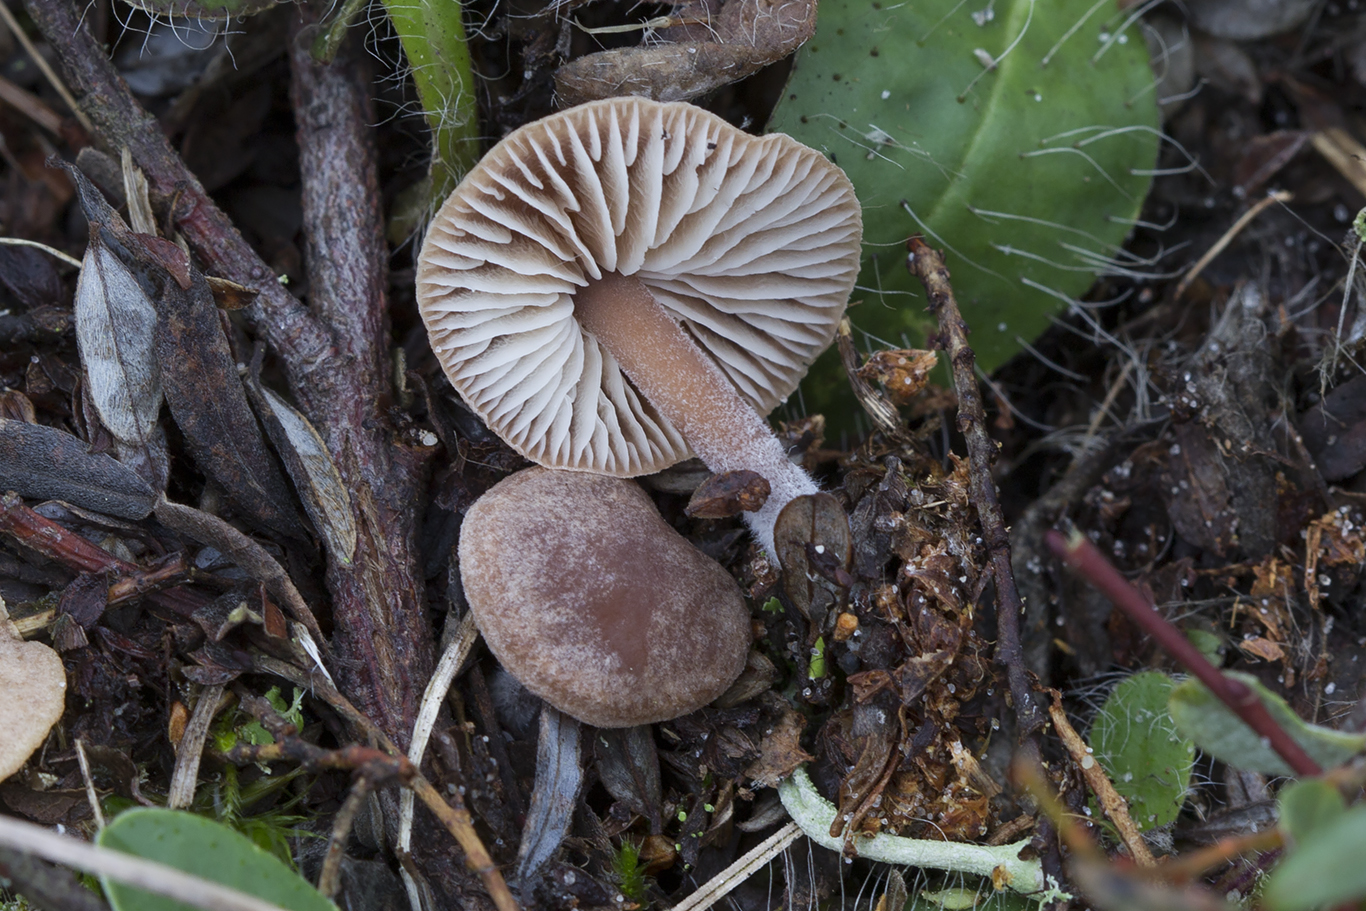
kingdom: Fungi
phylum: Basidiomycota
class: Agaricomycetes
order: Agaricales
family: Omphalotaceae
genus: Gymnopus
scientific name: Gymnopus impudicus
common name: fesen fladhat
